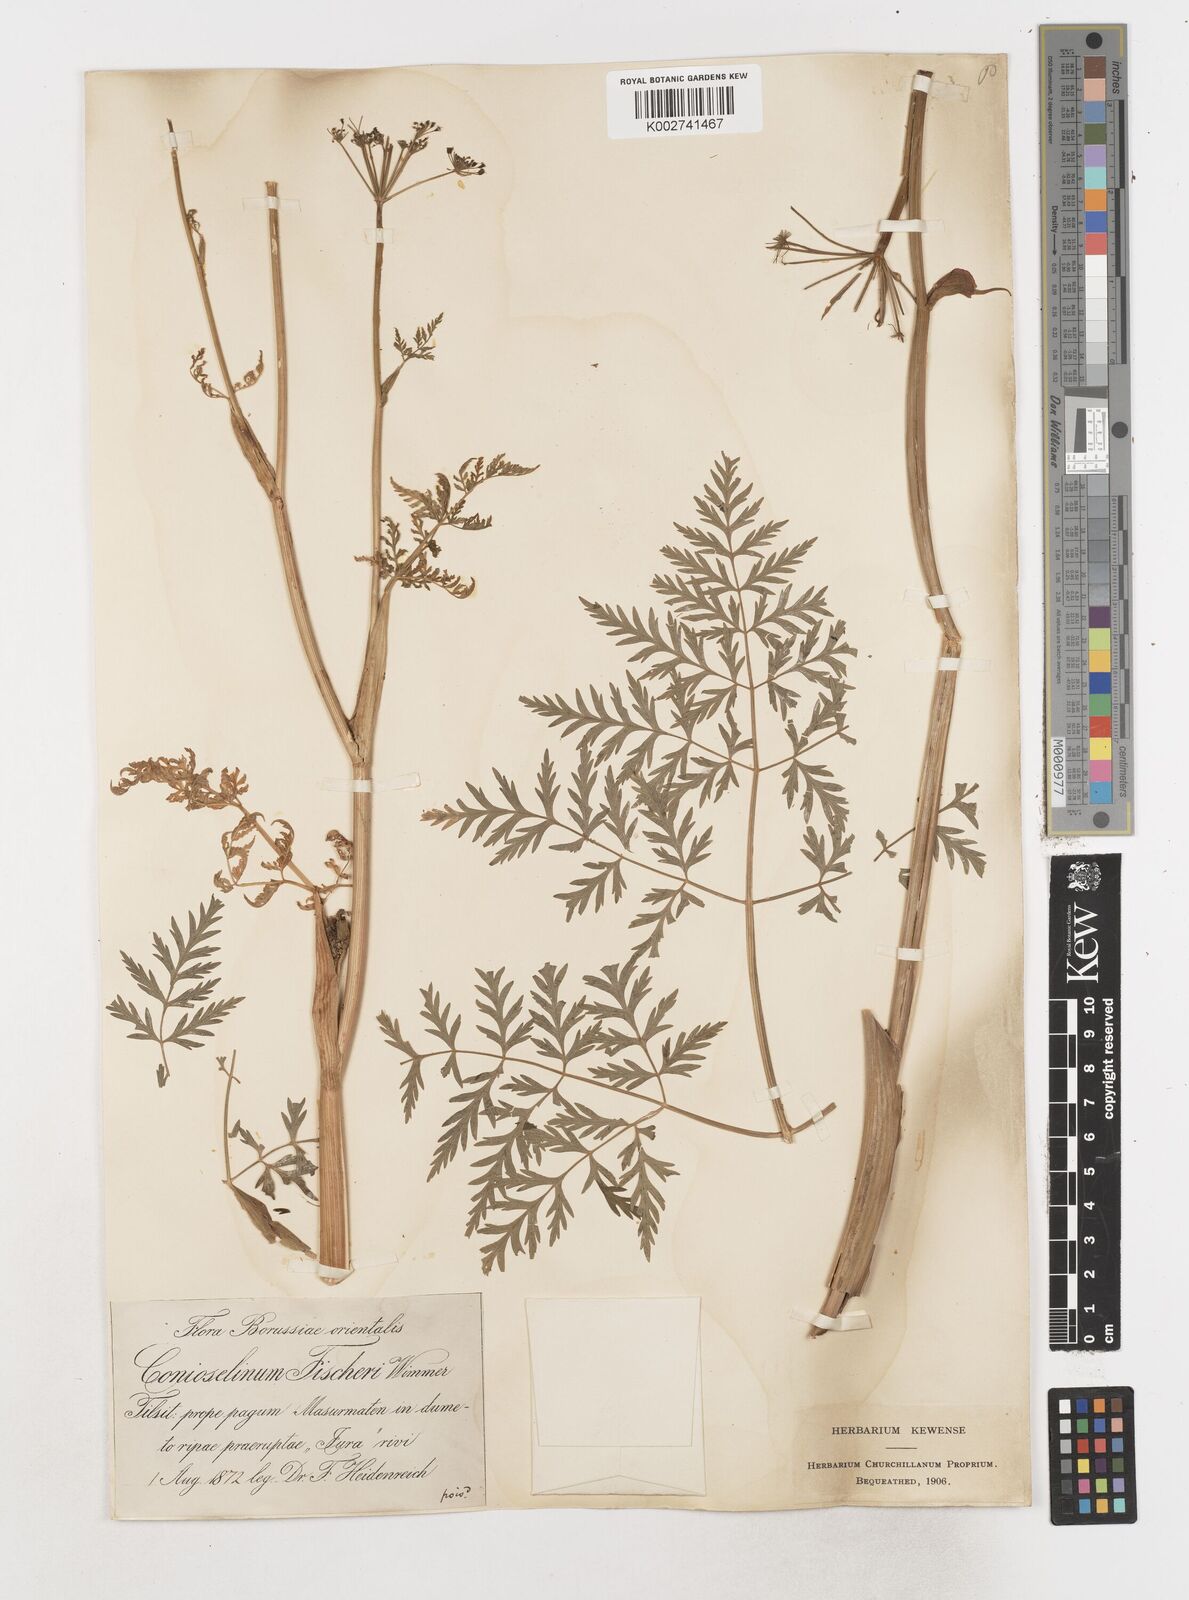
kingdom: Plantae
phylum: Tracheophyta
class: Magnoliopsida
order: Apiales
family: Apiaceae
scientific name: Apiaceae
